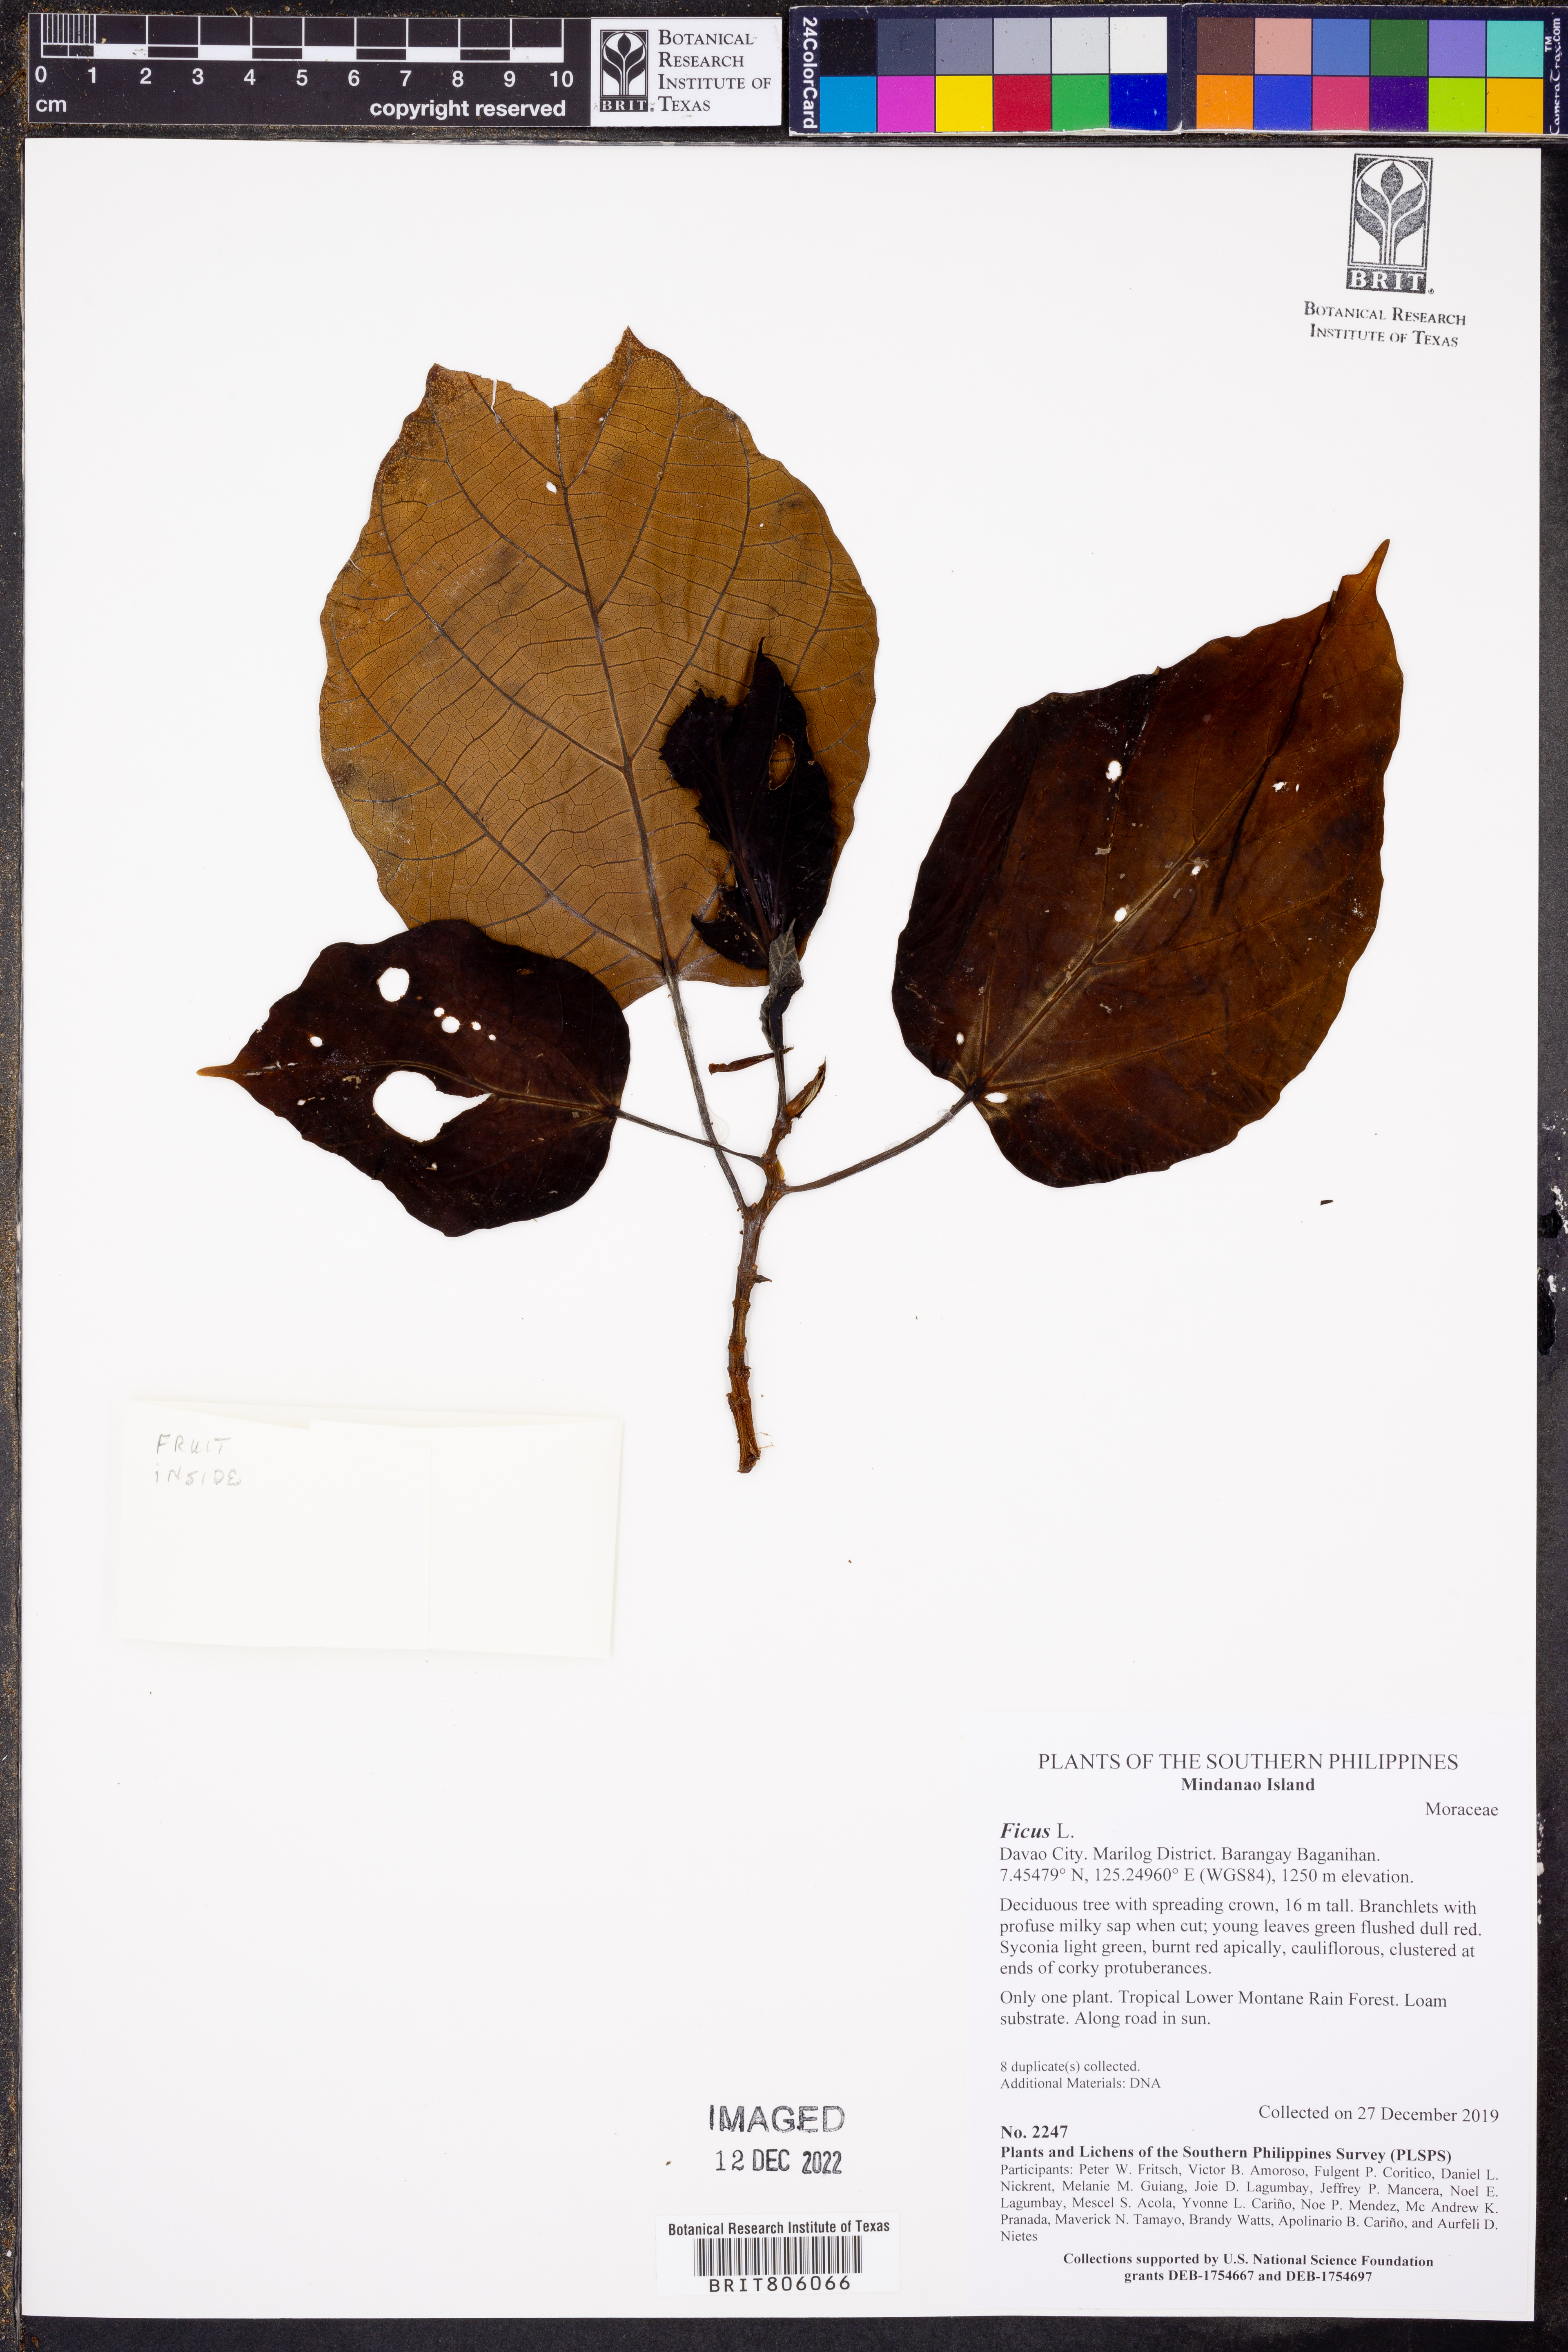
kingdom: Plantae
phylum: Tracheophyta
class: Magnoliopsida
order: Rosales
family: Moraceae
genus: Ficus
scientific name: Ficus
